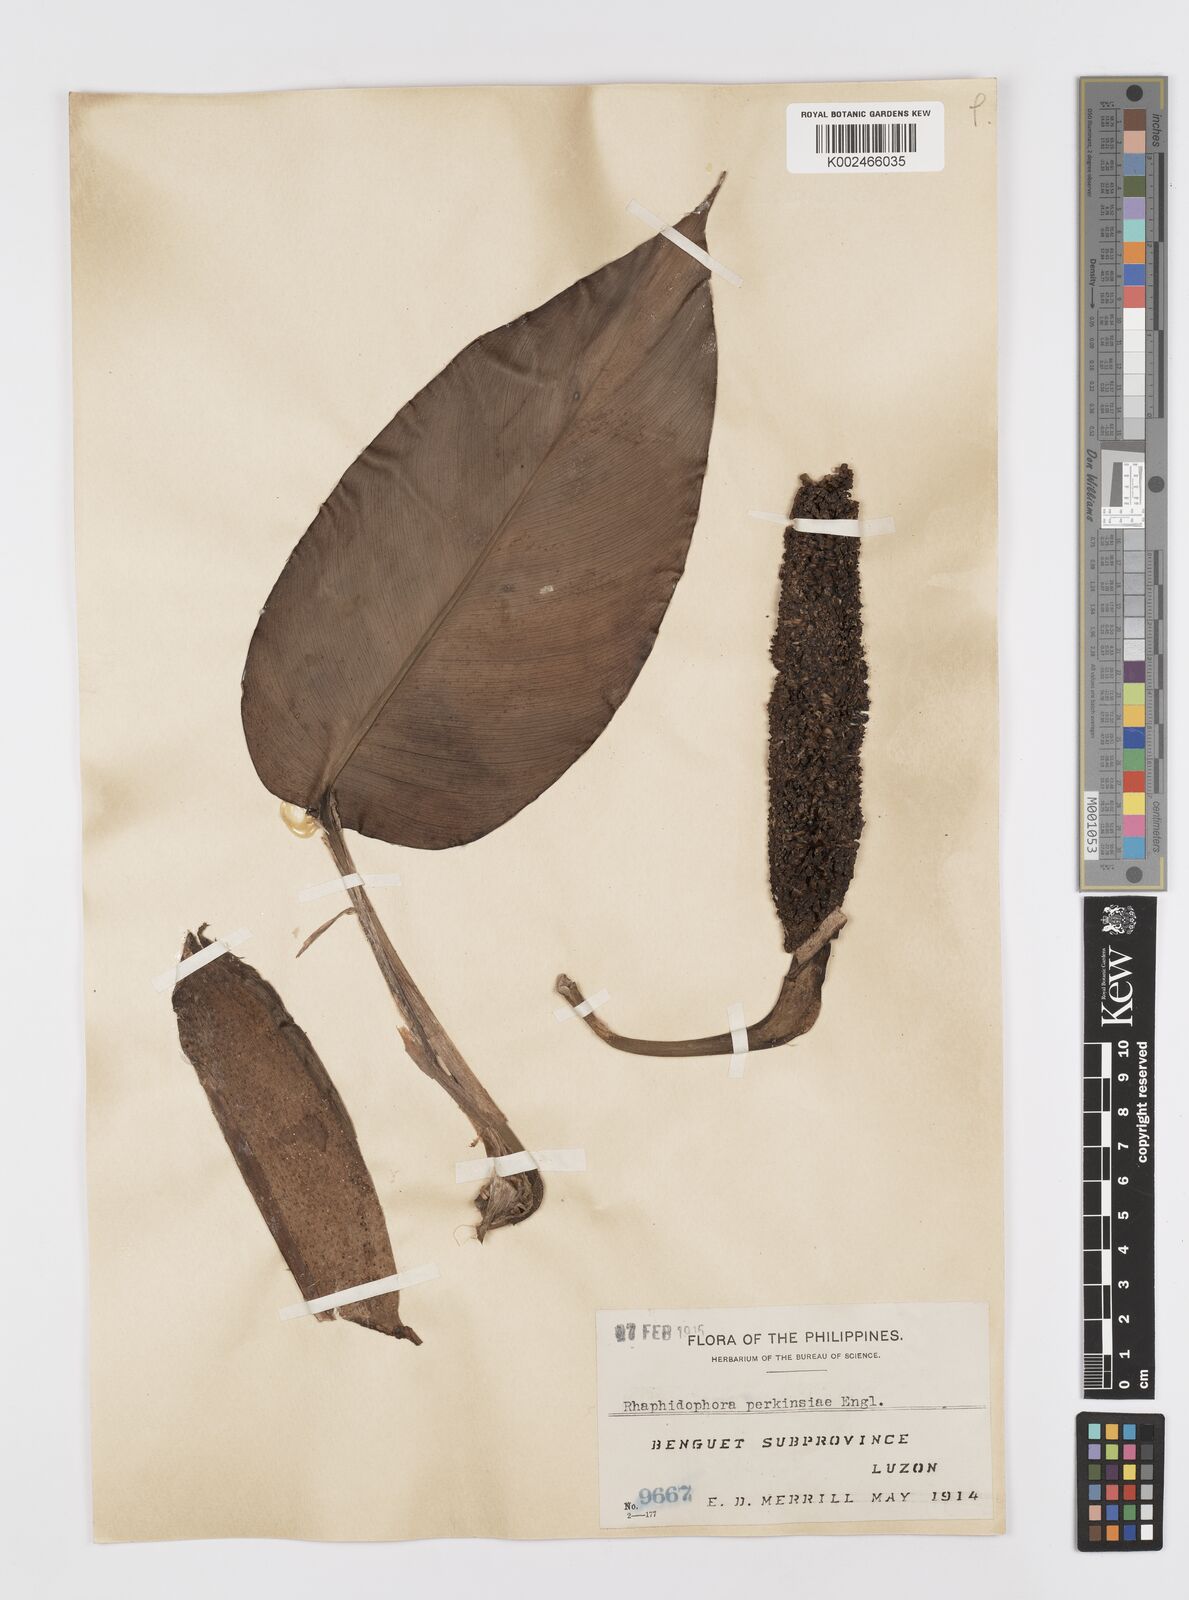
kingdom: Plantae
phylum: Tracheophyta
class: Liliopsida
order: Alismatales
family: Araceae
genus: Rhaphidophora
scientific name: Rhaphidophora perkinsiae
